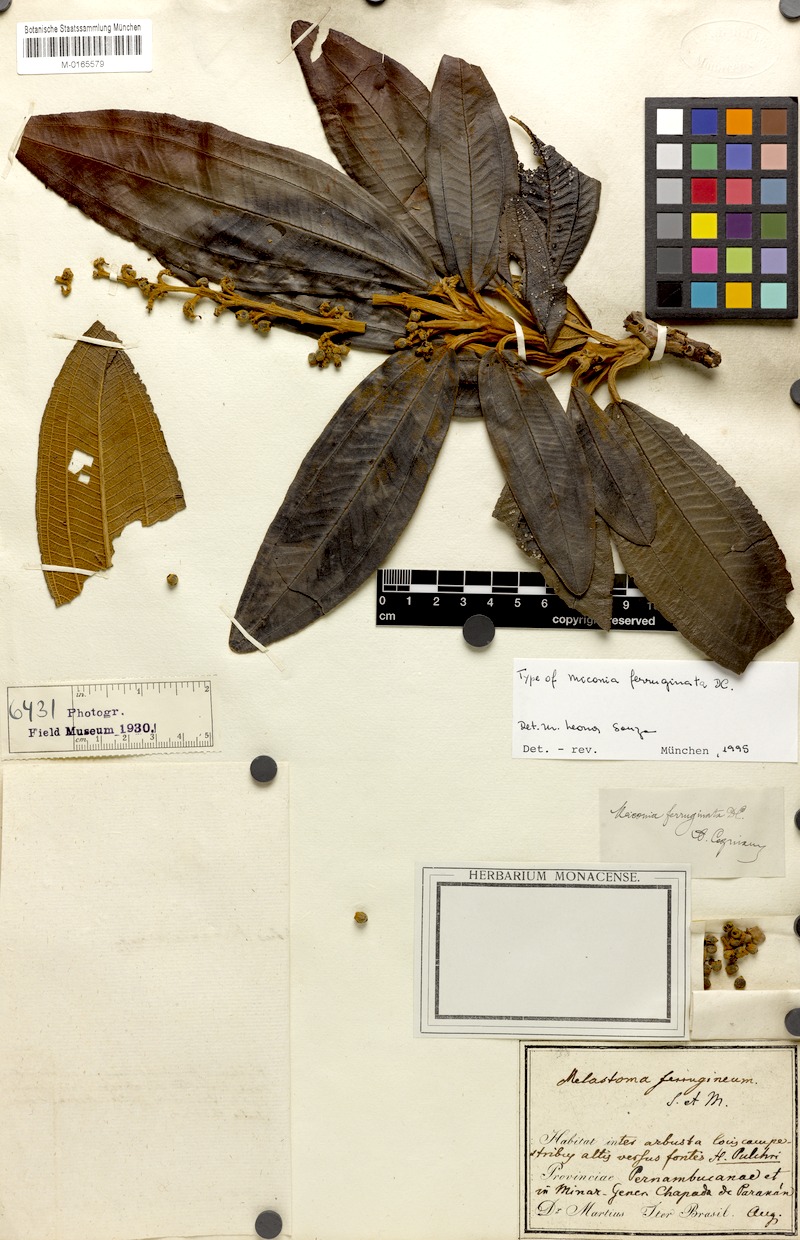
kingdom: Plantae
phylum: Tracheophyta
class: Magnoliopsida
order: Myrtales
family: Melastomataceae
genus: Miconia
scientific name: Miconia ferruginata
